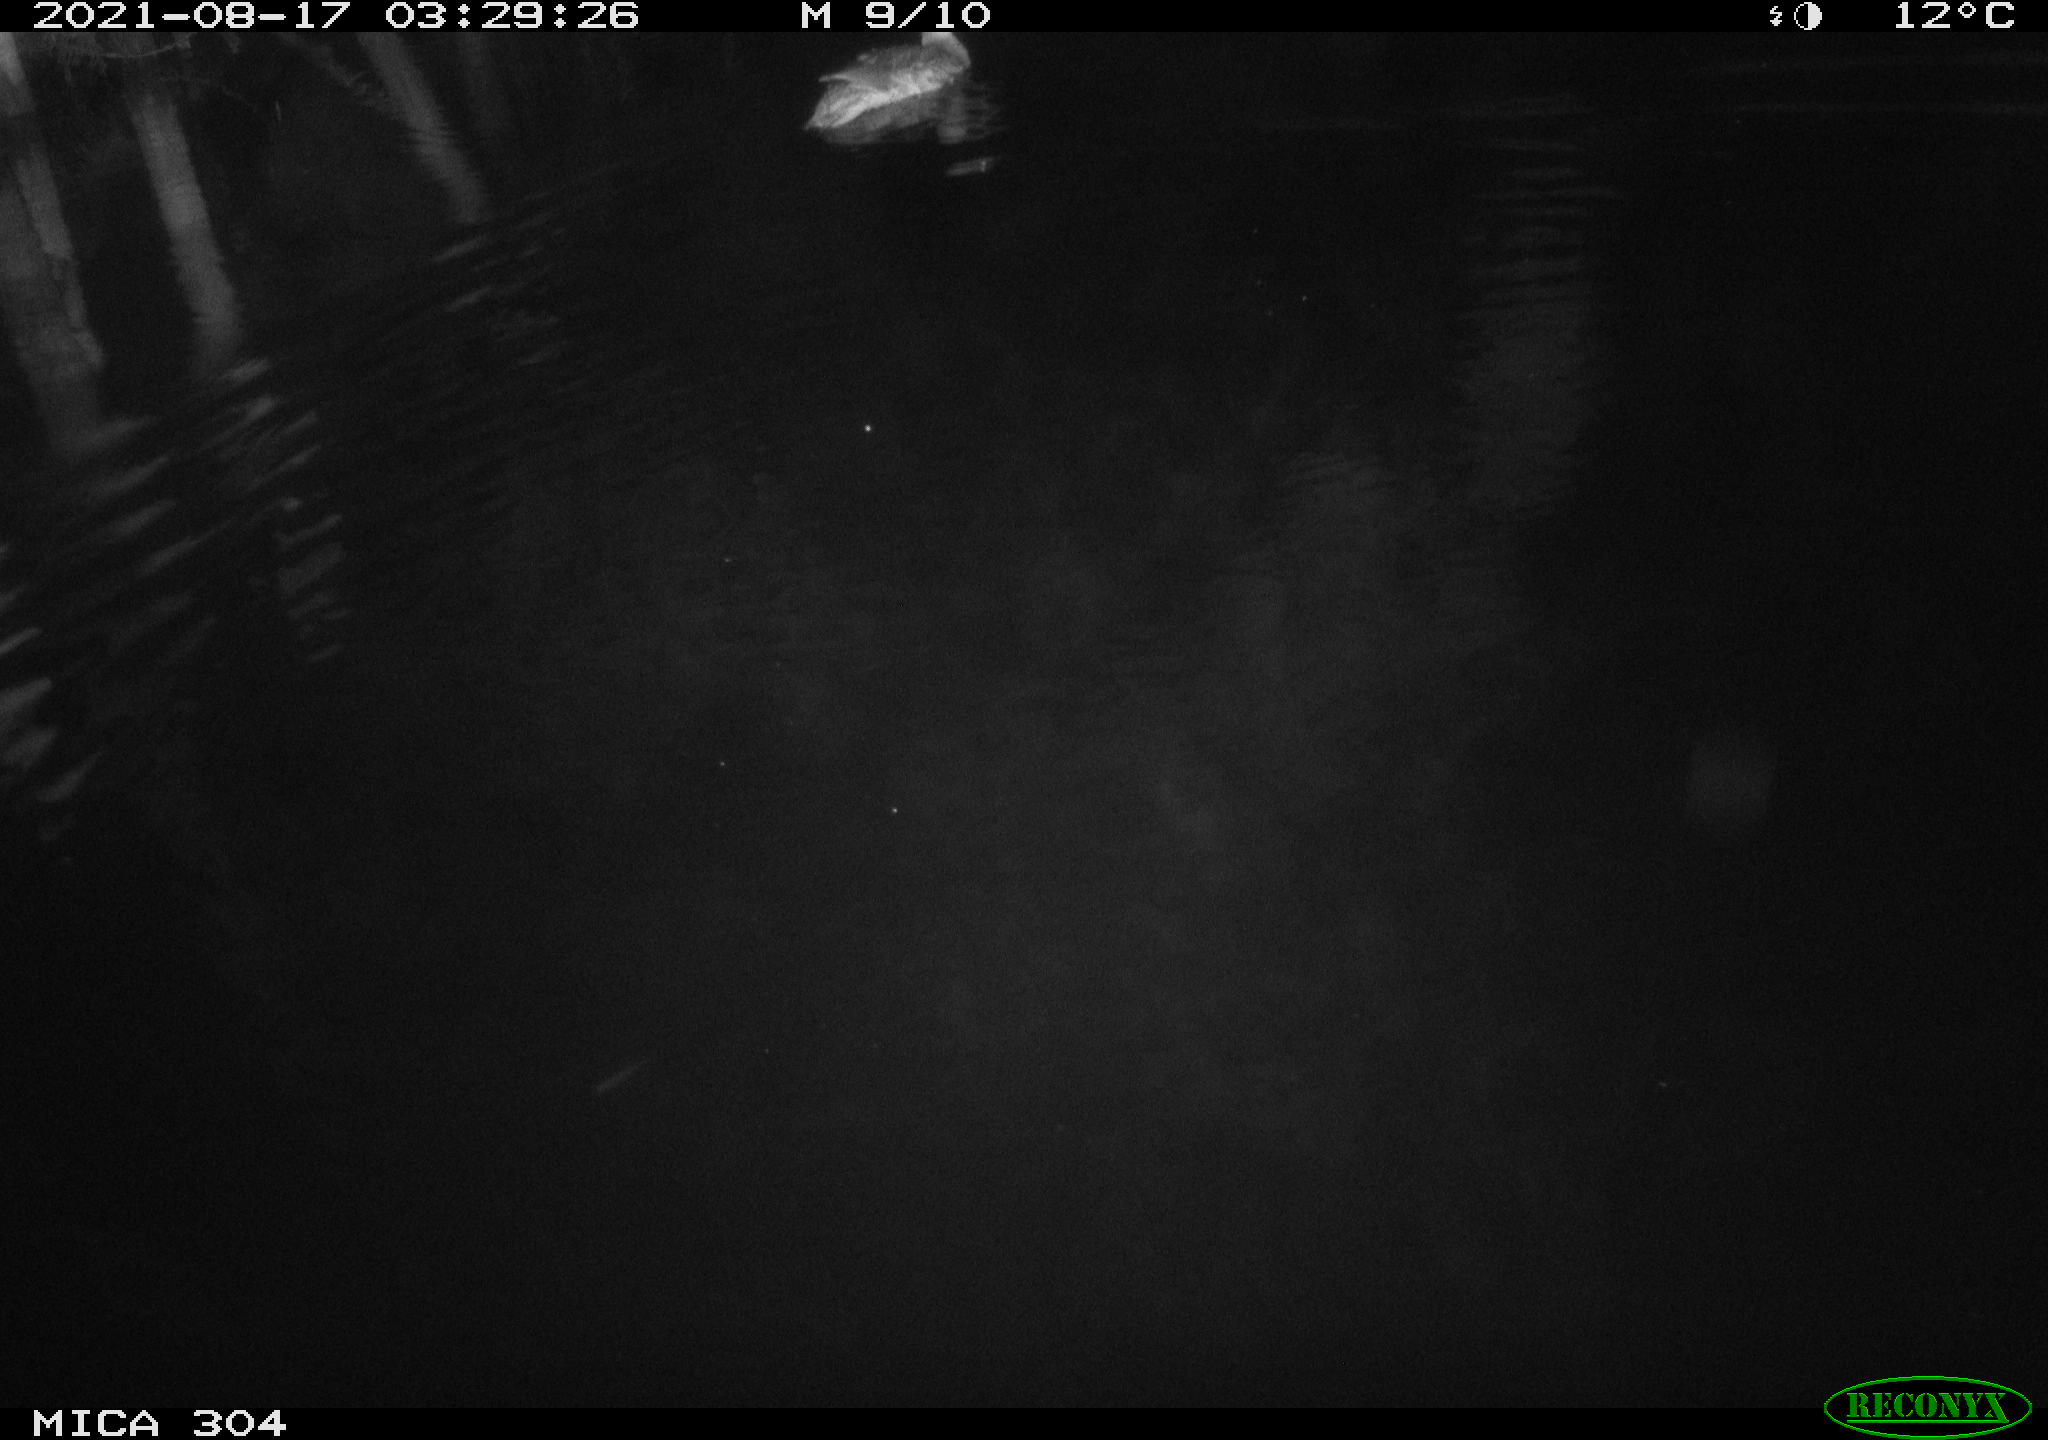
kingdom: Animalia
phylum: Chordata
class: Aves
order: Anseriformes
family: Anatidae
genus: Mareca
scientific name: Mareca strepera
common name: Gadwall
